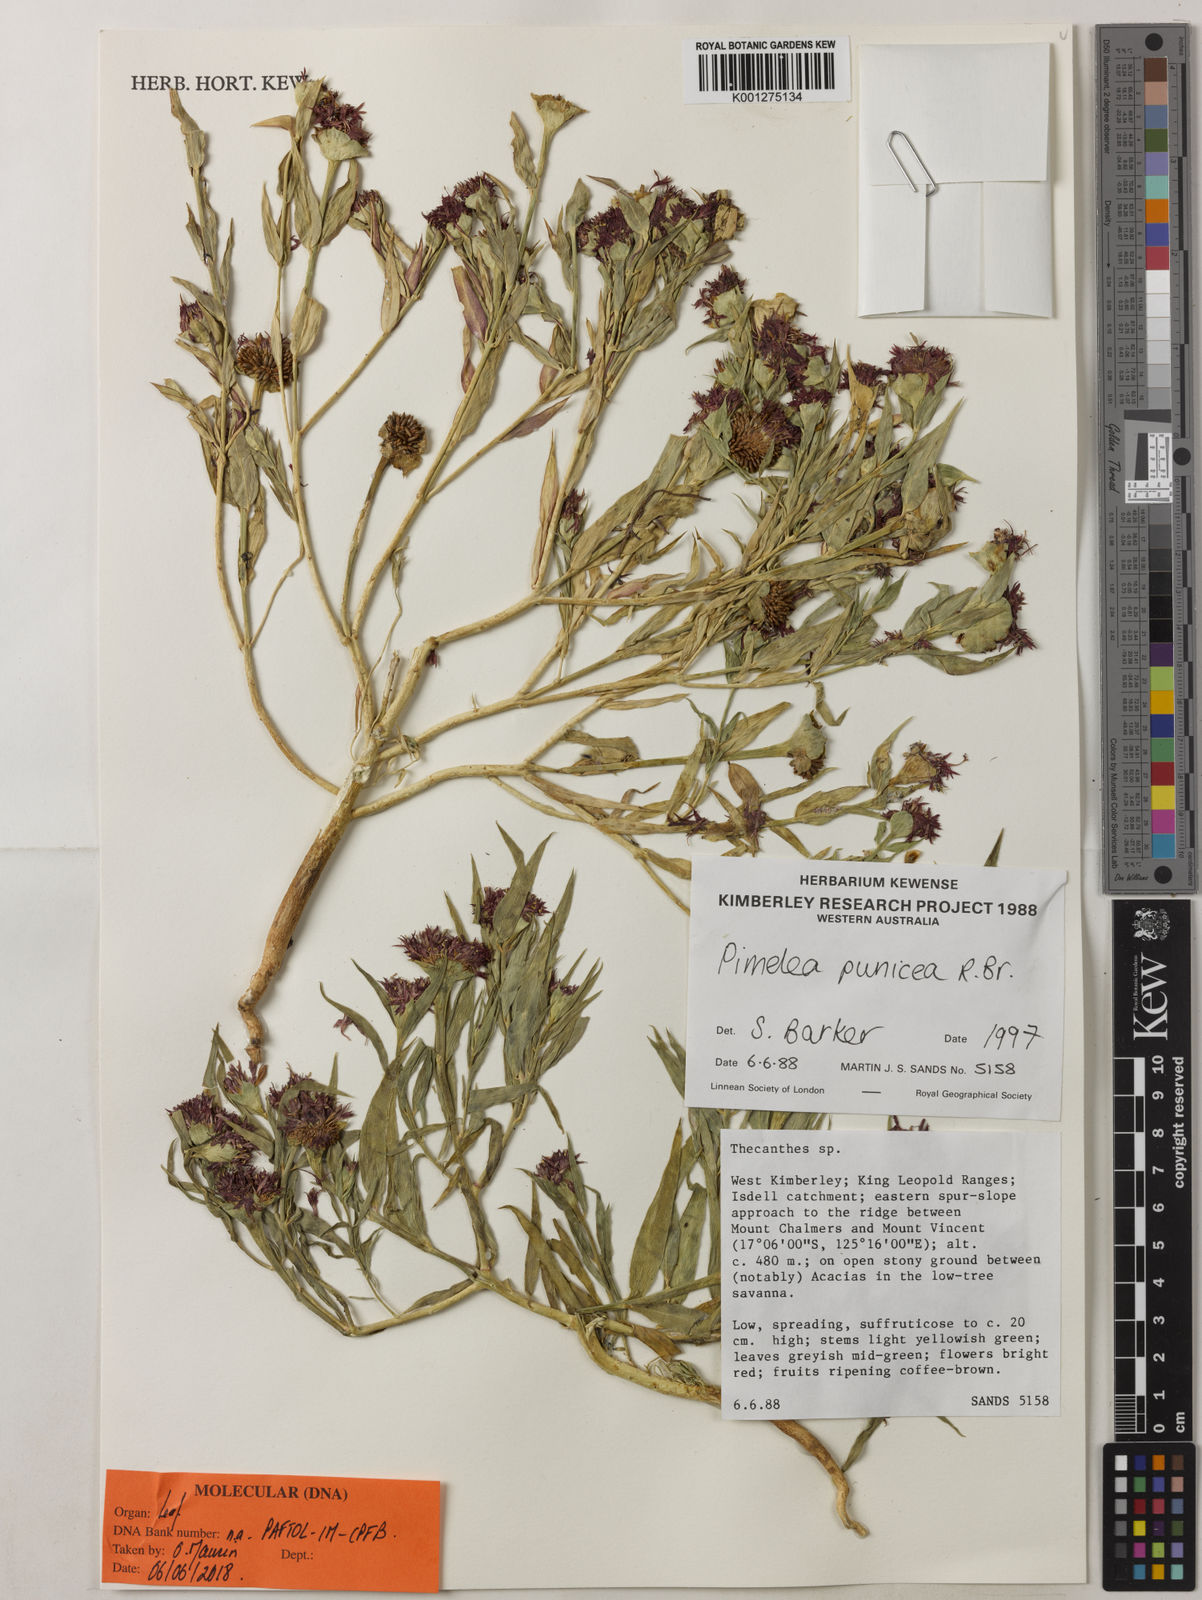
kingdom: Plantae
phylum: Tracheophyta
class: Magnoliopsida
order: Malvales
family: Thymelaeaceae
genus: Pimelea
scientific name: Pimelea punicea
